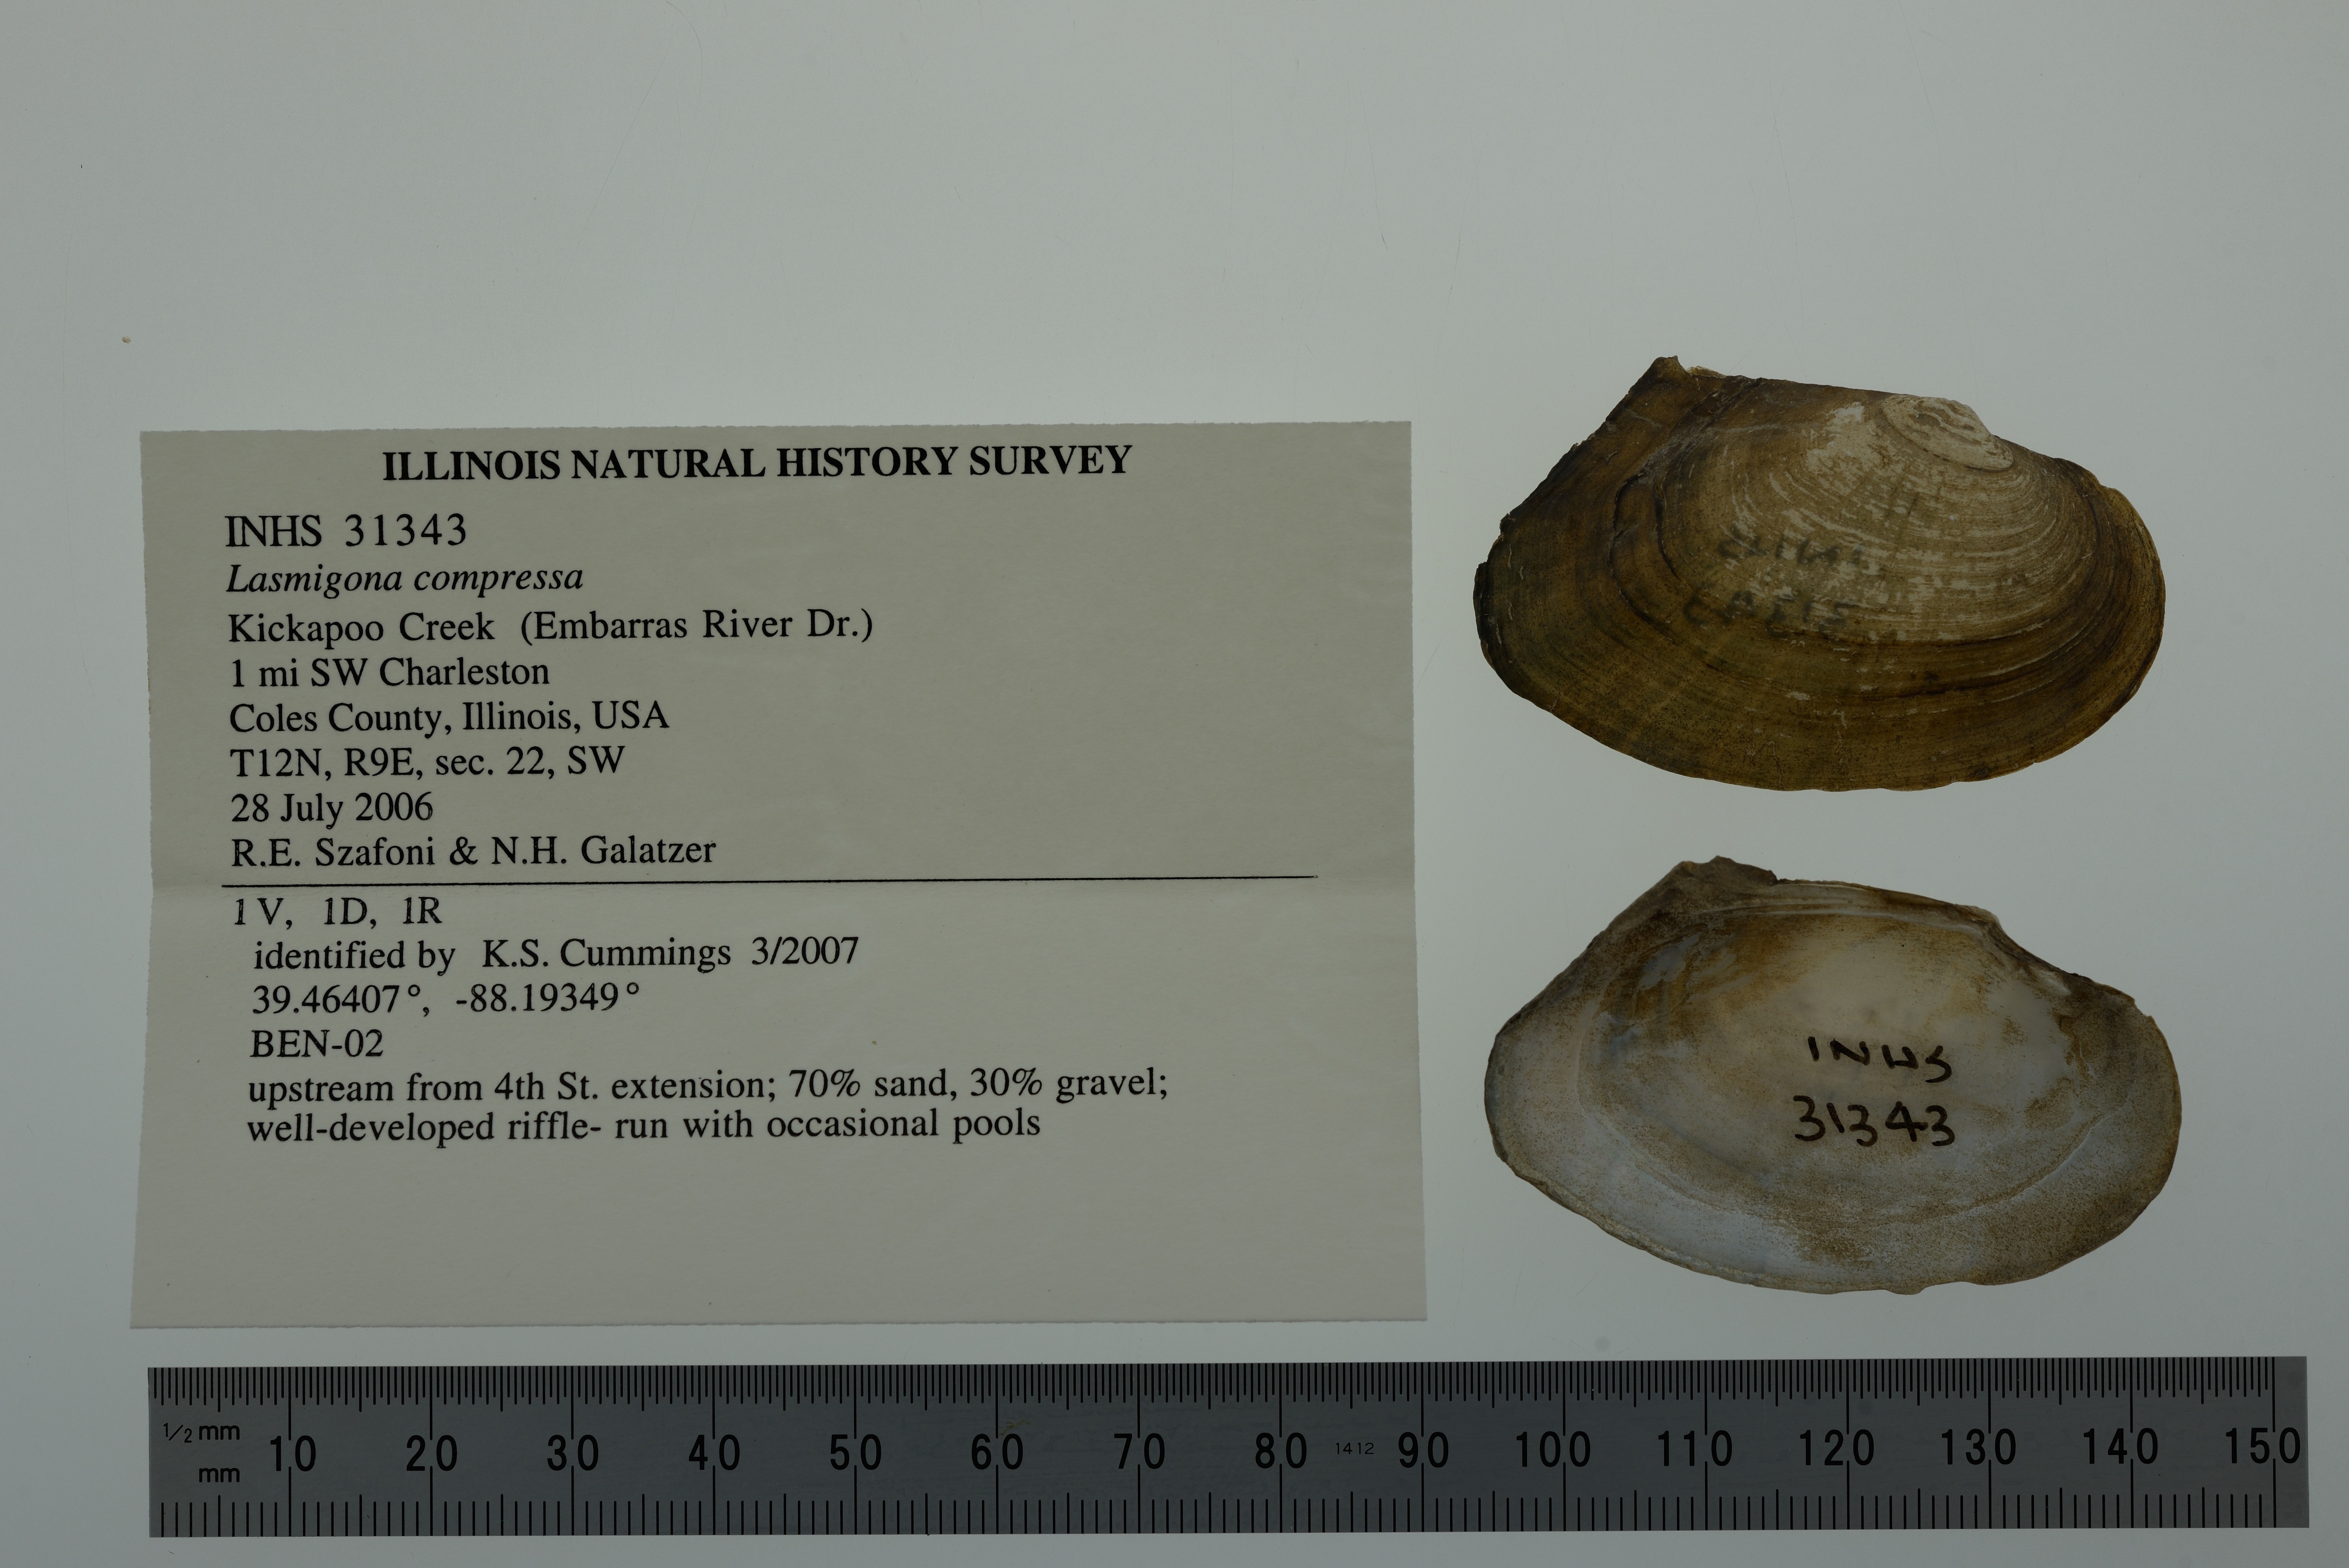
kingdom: Animalia
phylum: Mollusca
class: Bivalvia
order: Unionida
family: Unionidae
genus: Lasmigona
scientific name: Lasmigona compressa
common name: Creek heelsplitter
